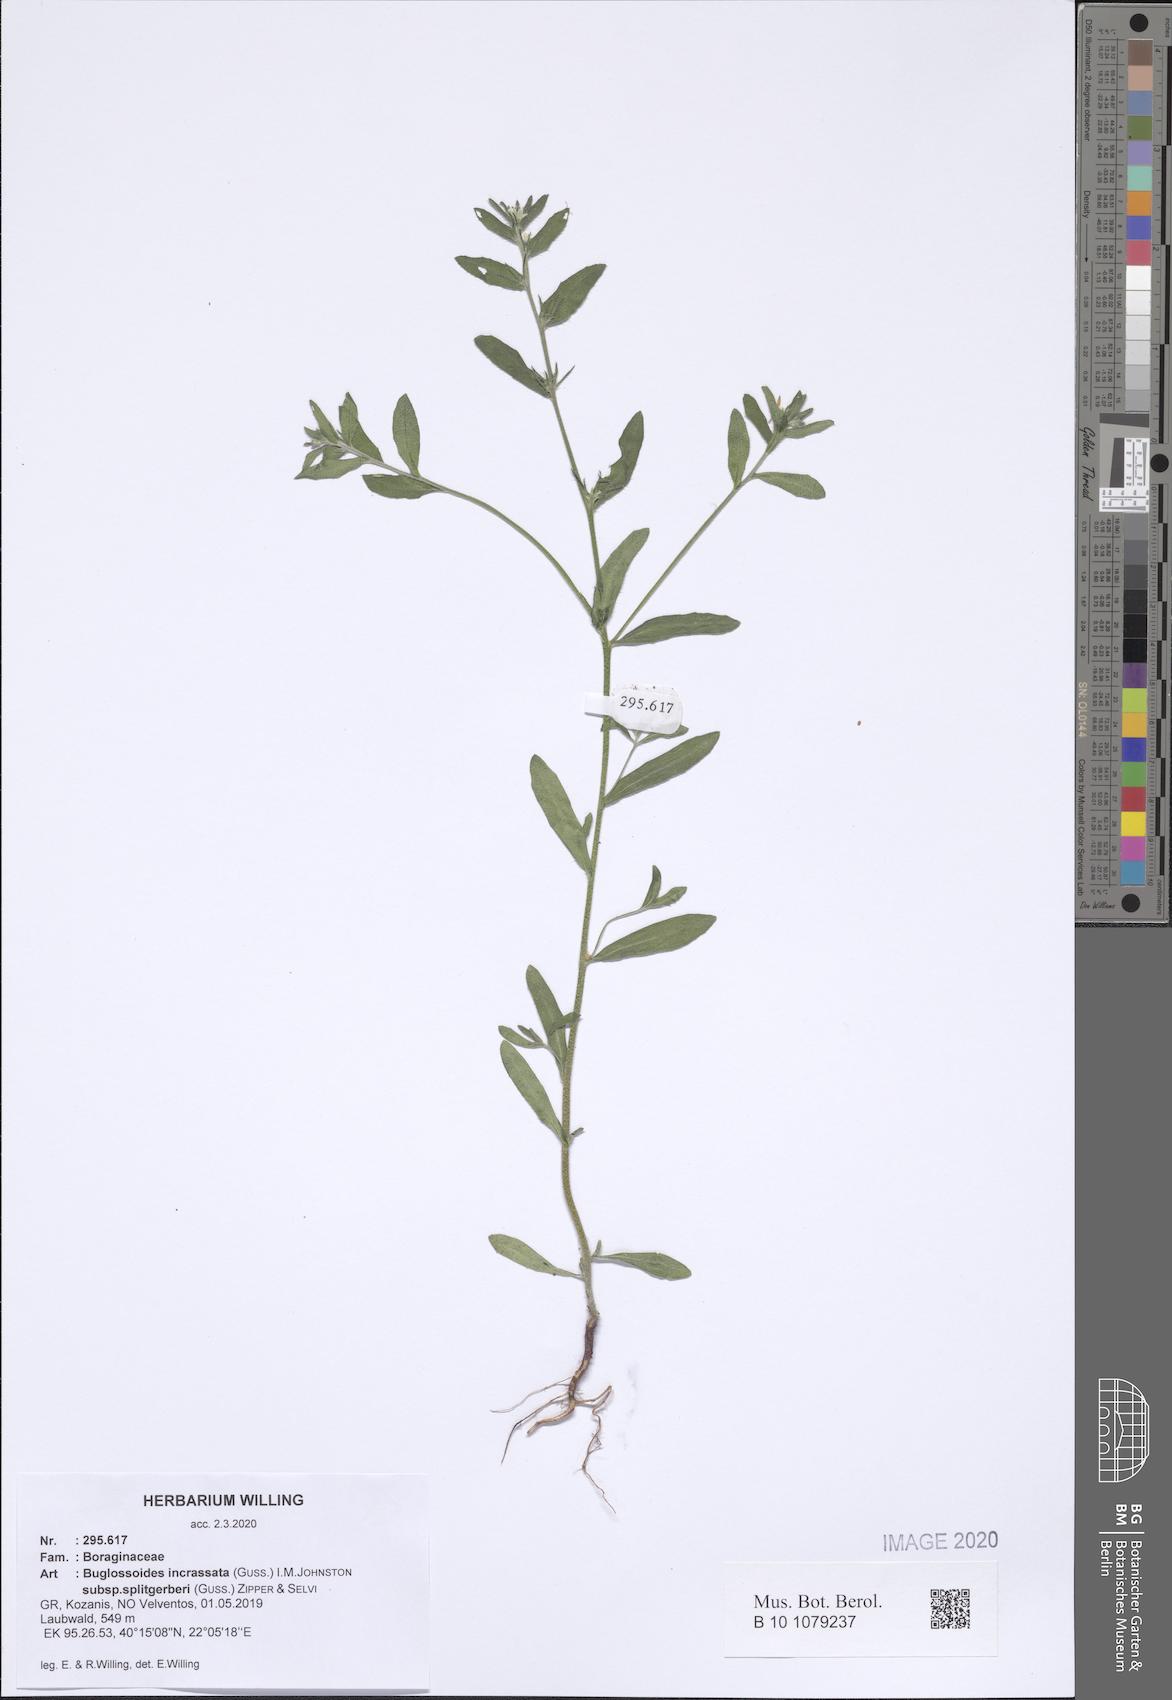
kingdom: Plantae
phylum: Tracheophyta
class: Magnoliopsida
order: Boraginales
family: Boraginaceae
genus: Buglossoides
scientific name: Buglossoides incrassata
